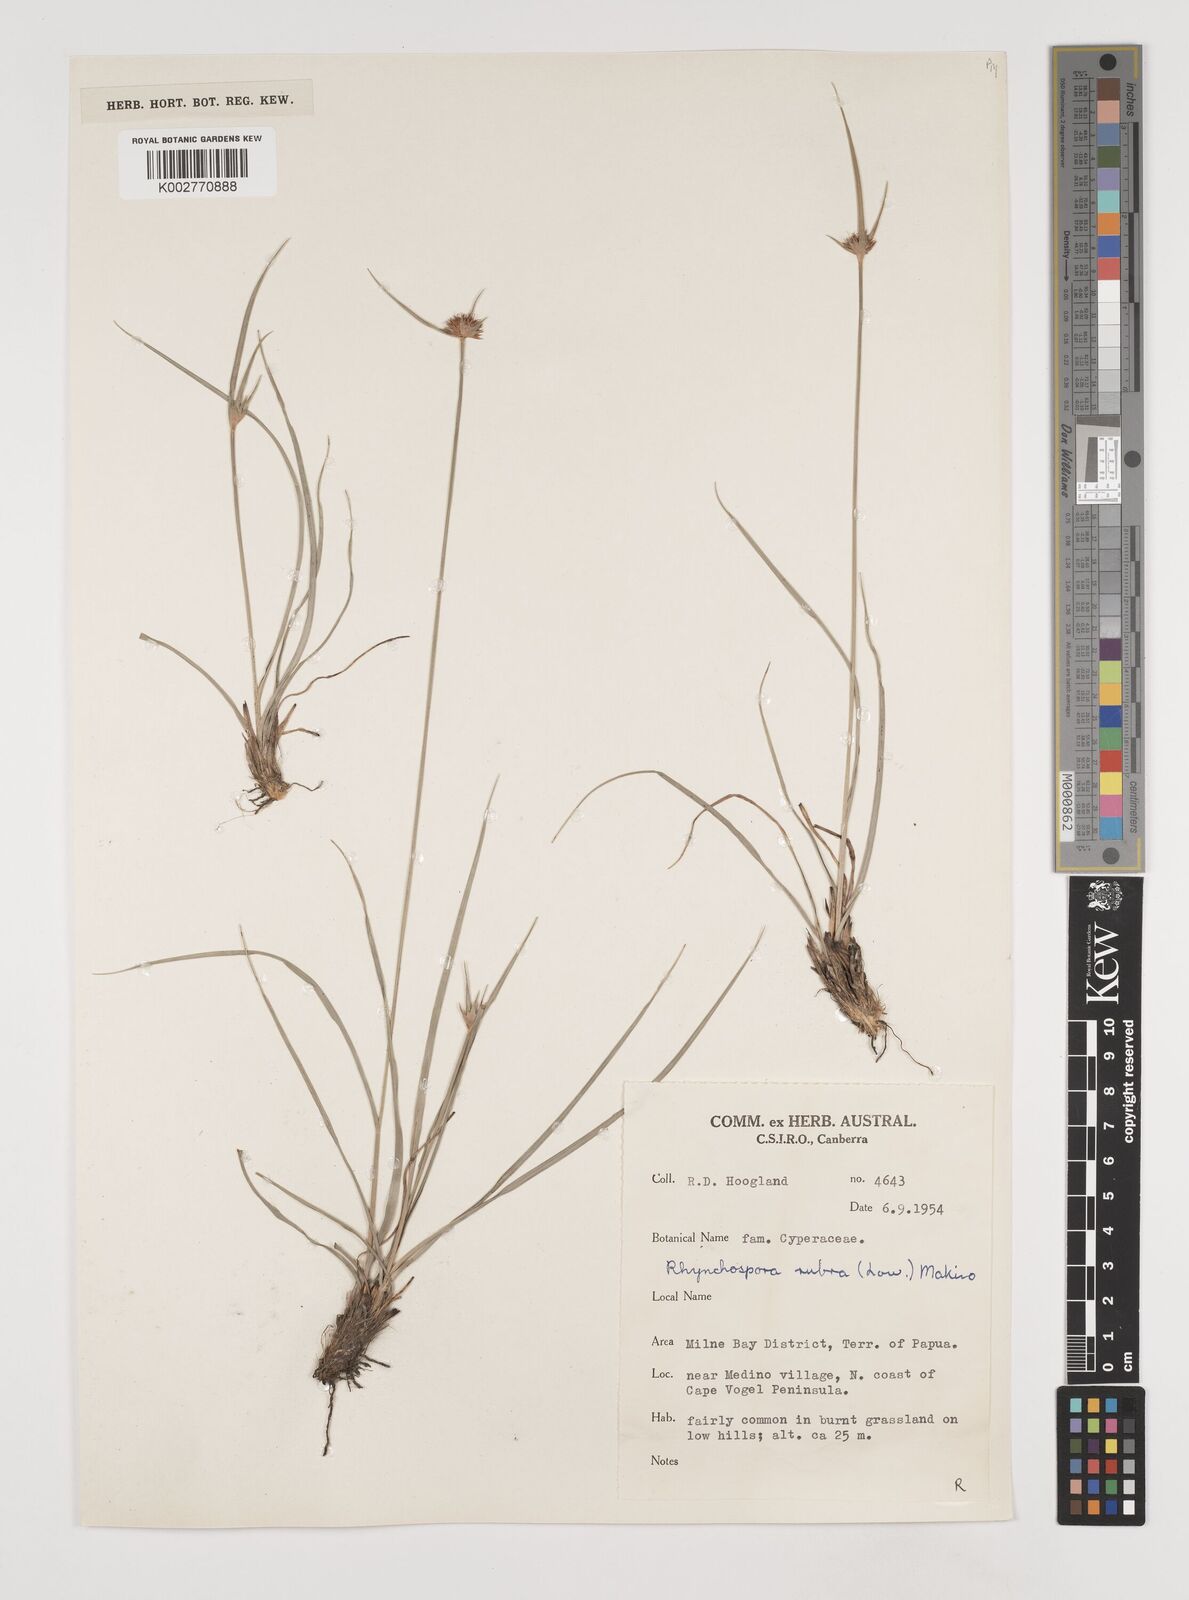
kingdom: Plantae
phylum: Tracheophyta
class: Liliopsida
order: Poales
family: Cyperaceae
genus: Rhynchospora
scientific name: Rhynchospora rubra
